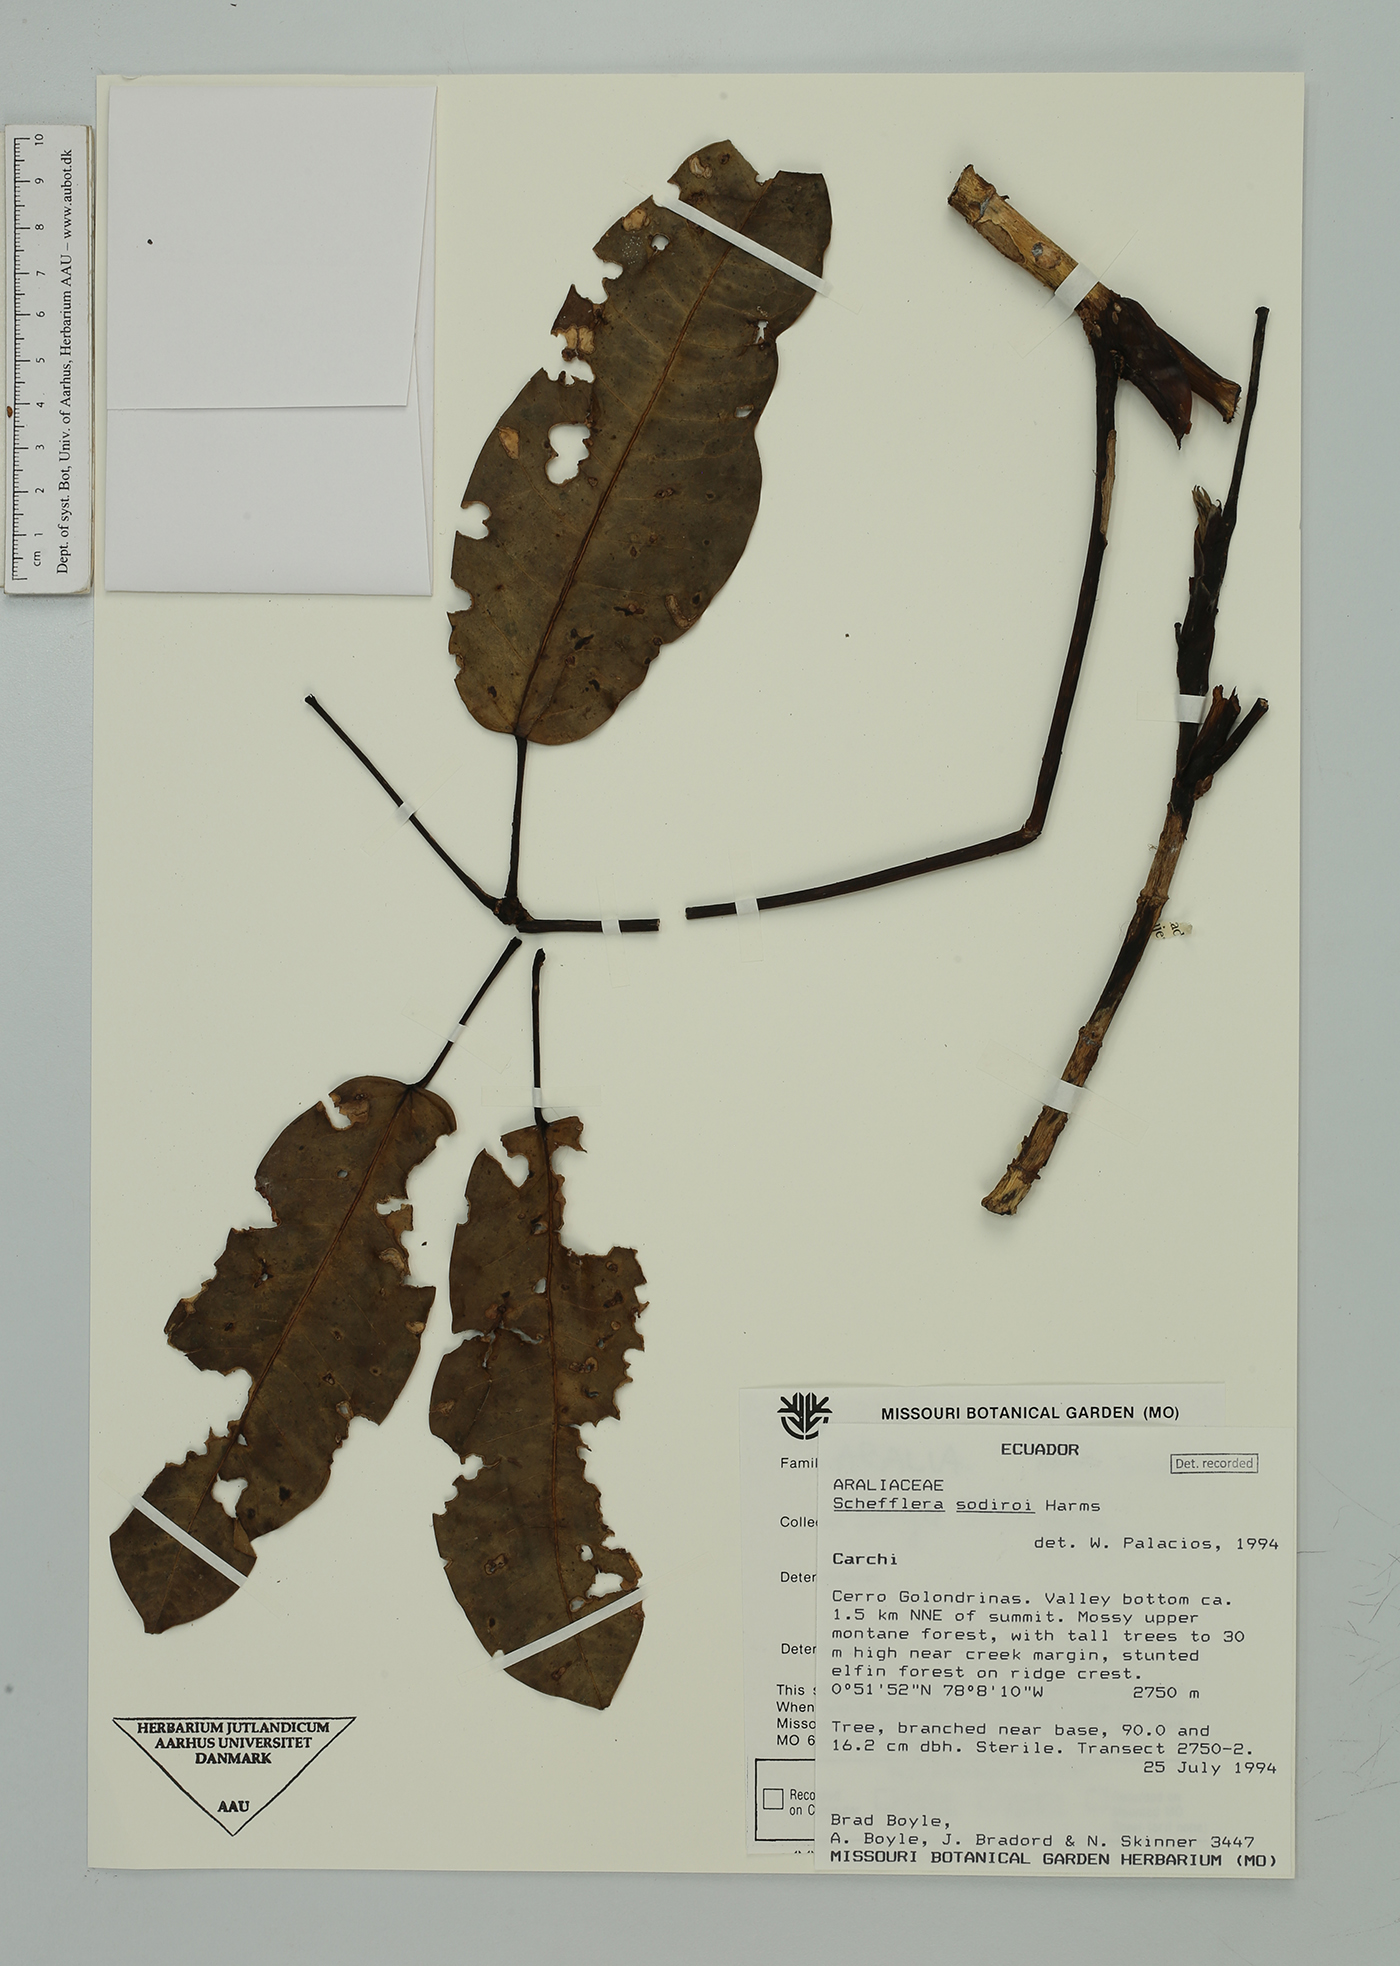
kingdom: Plantae
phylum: Tracheophyta
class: Magnoliopsida
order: Apiales
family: Araliaceae
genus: Sciodaphyllum
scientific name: Sciodaphyllum sodiroi
